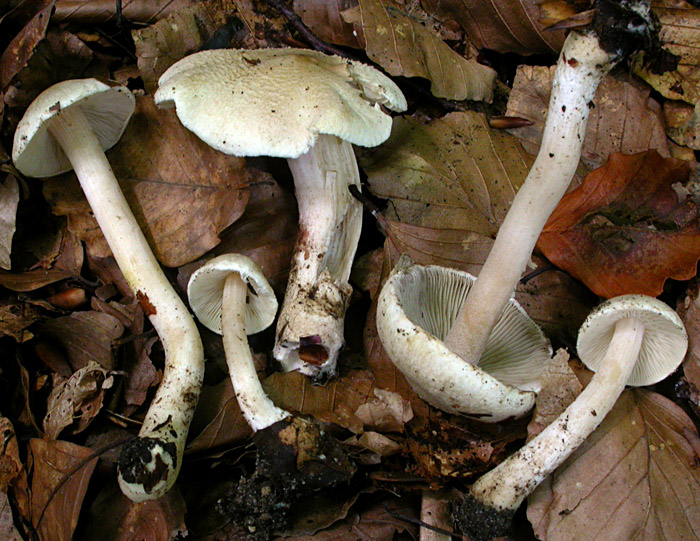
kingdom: Fungi
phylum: Basidiomycota
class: Agaricomycetes
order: Agaricales
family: Inocybaceae
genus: Inocybe
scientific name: Inocybe sindonia
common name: bleg trævlhat
